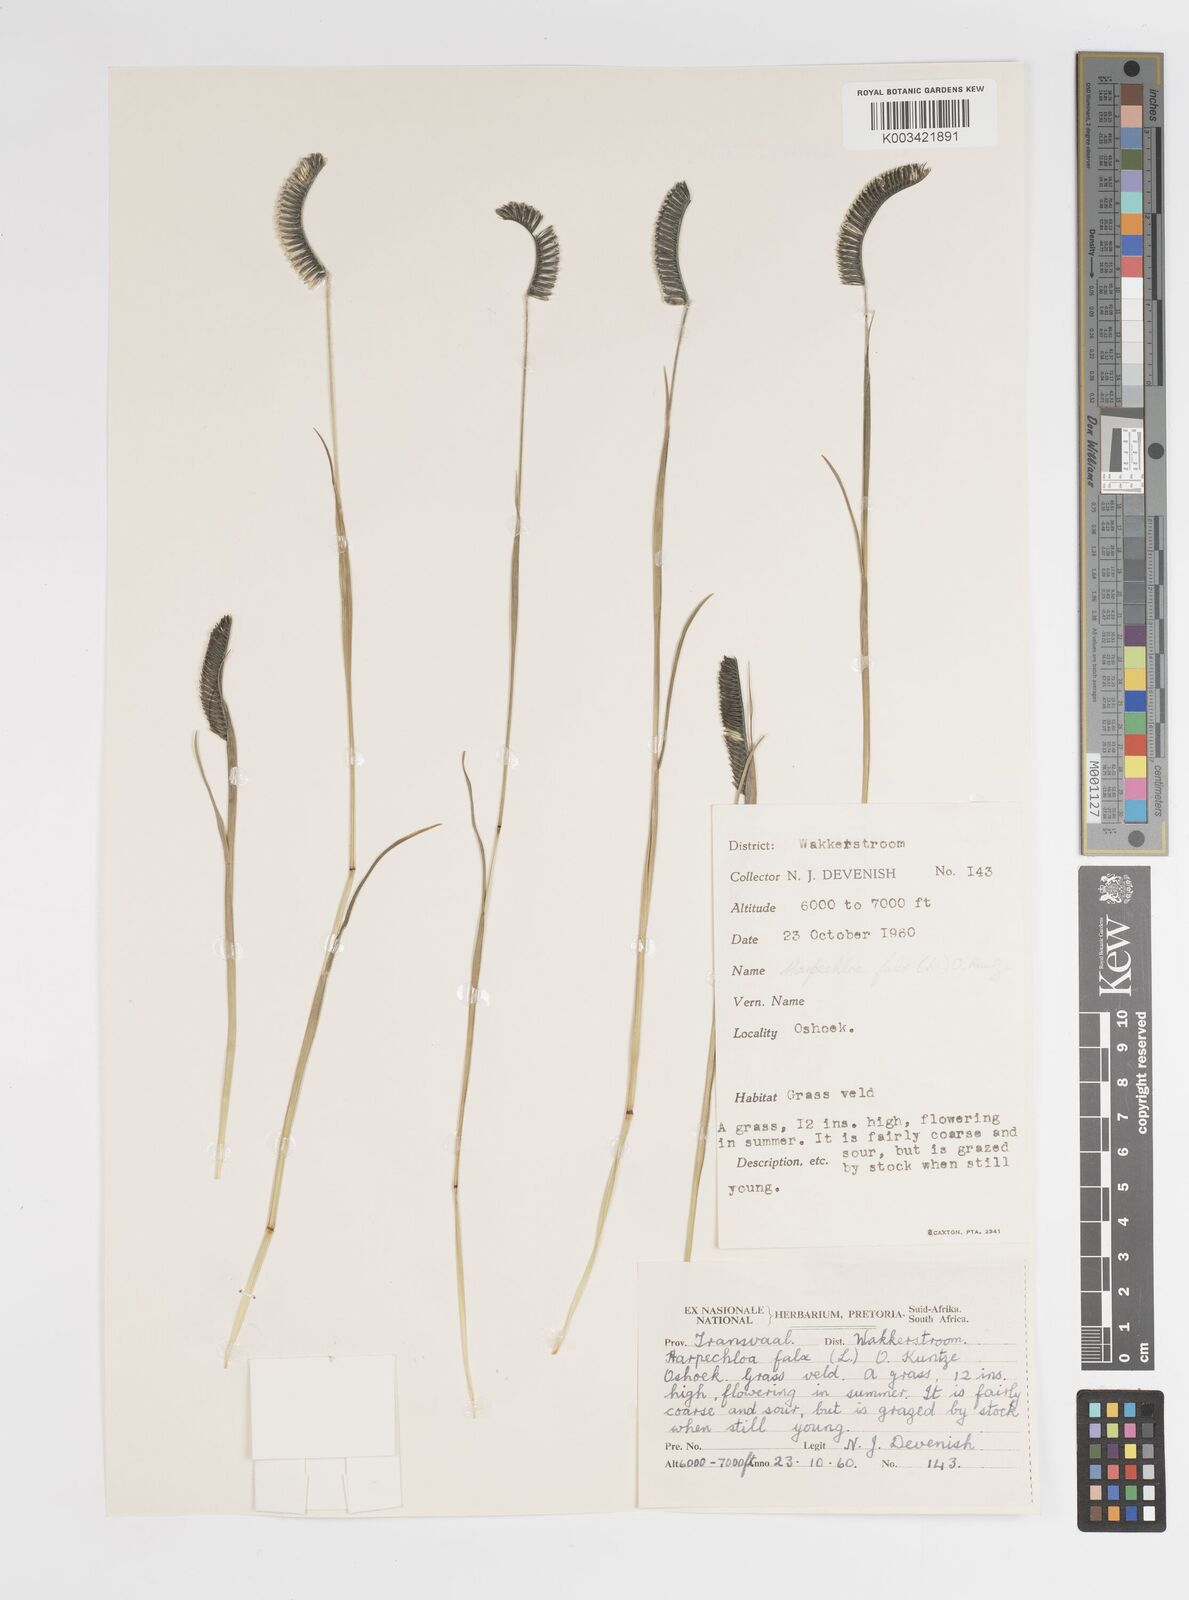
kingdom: Plantae
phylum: Tracheophyta
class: Liliopsida
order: Poales
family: Poaceae
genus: Harpochloa
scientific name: Harpochloa falx
